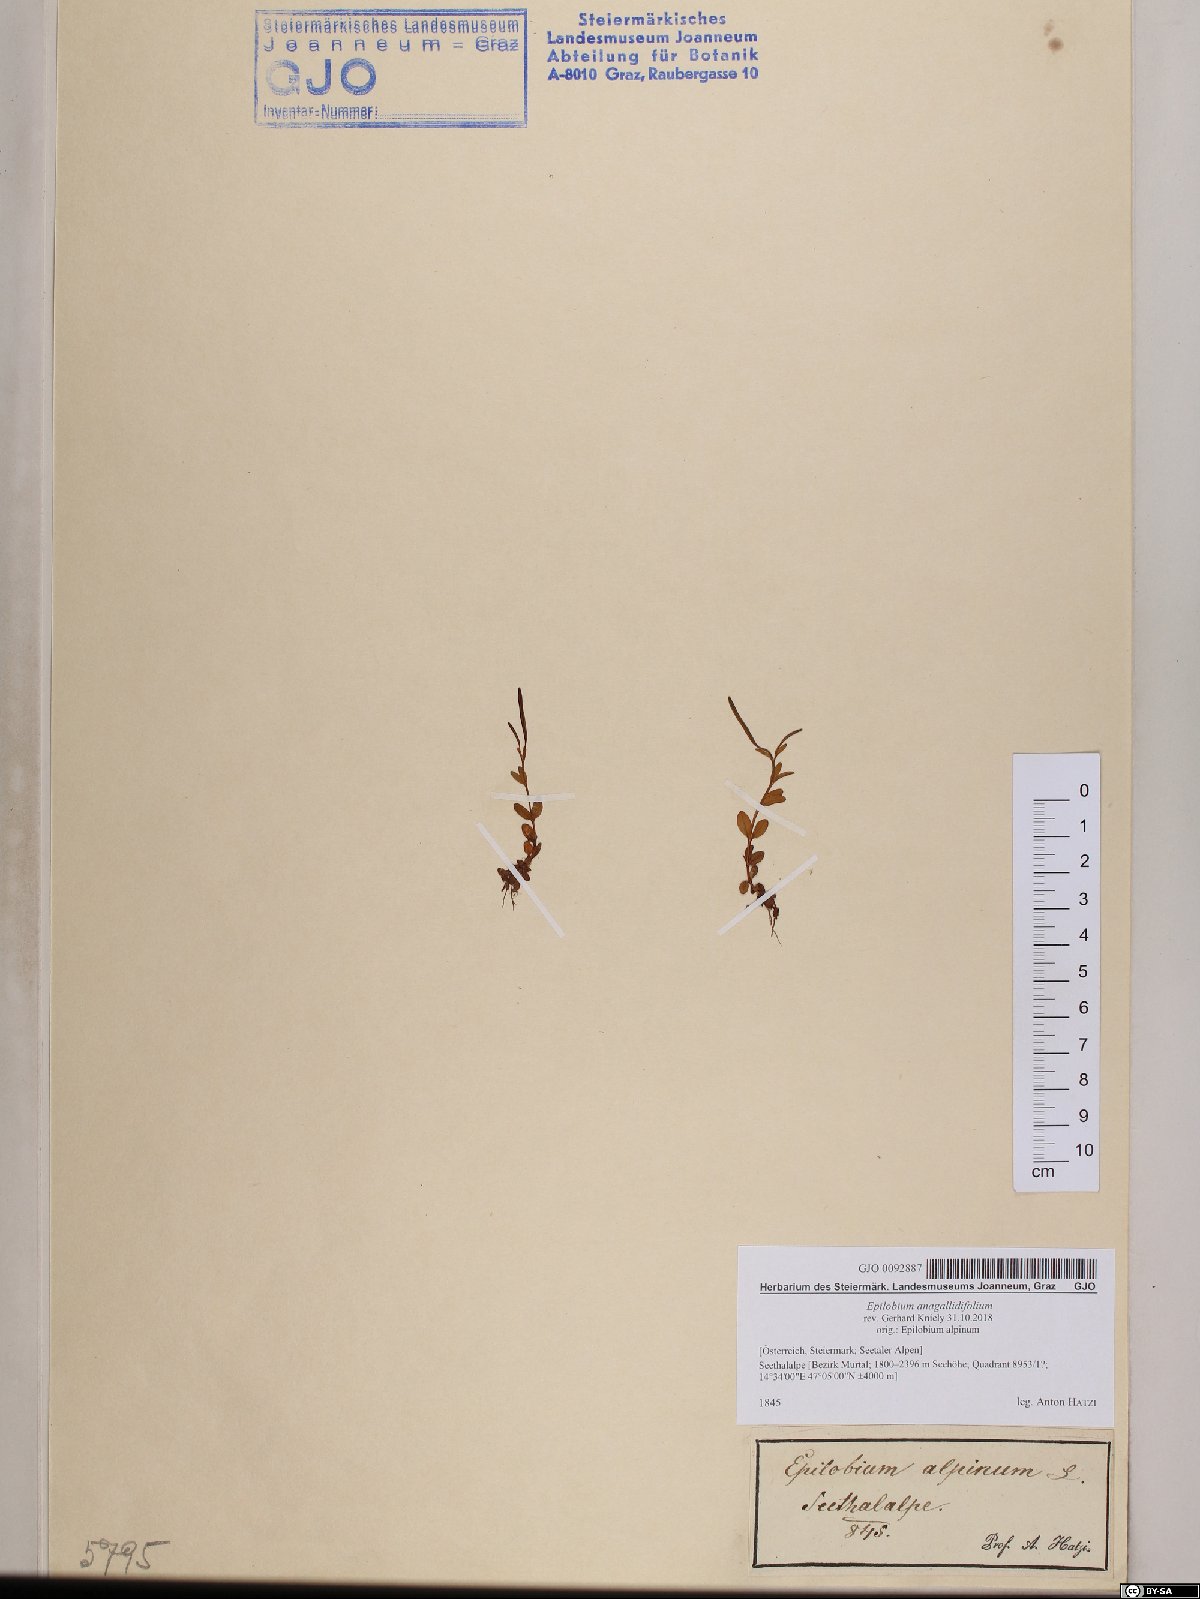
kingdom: Plantae
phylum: Tracheophyta
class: Magnoliopsida
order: Myrtales
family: Onagraceae
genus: Epilobium
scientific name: Epilobium anagallidifolium
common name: Alpine willowherb
